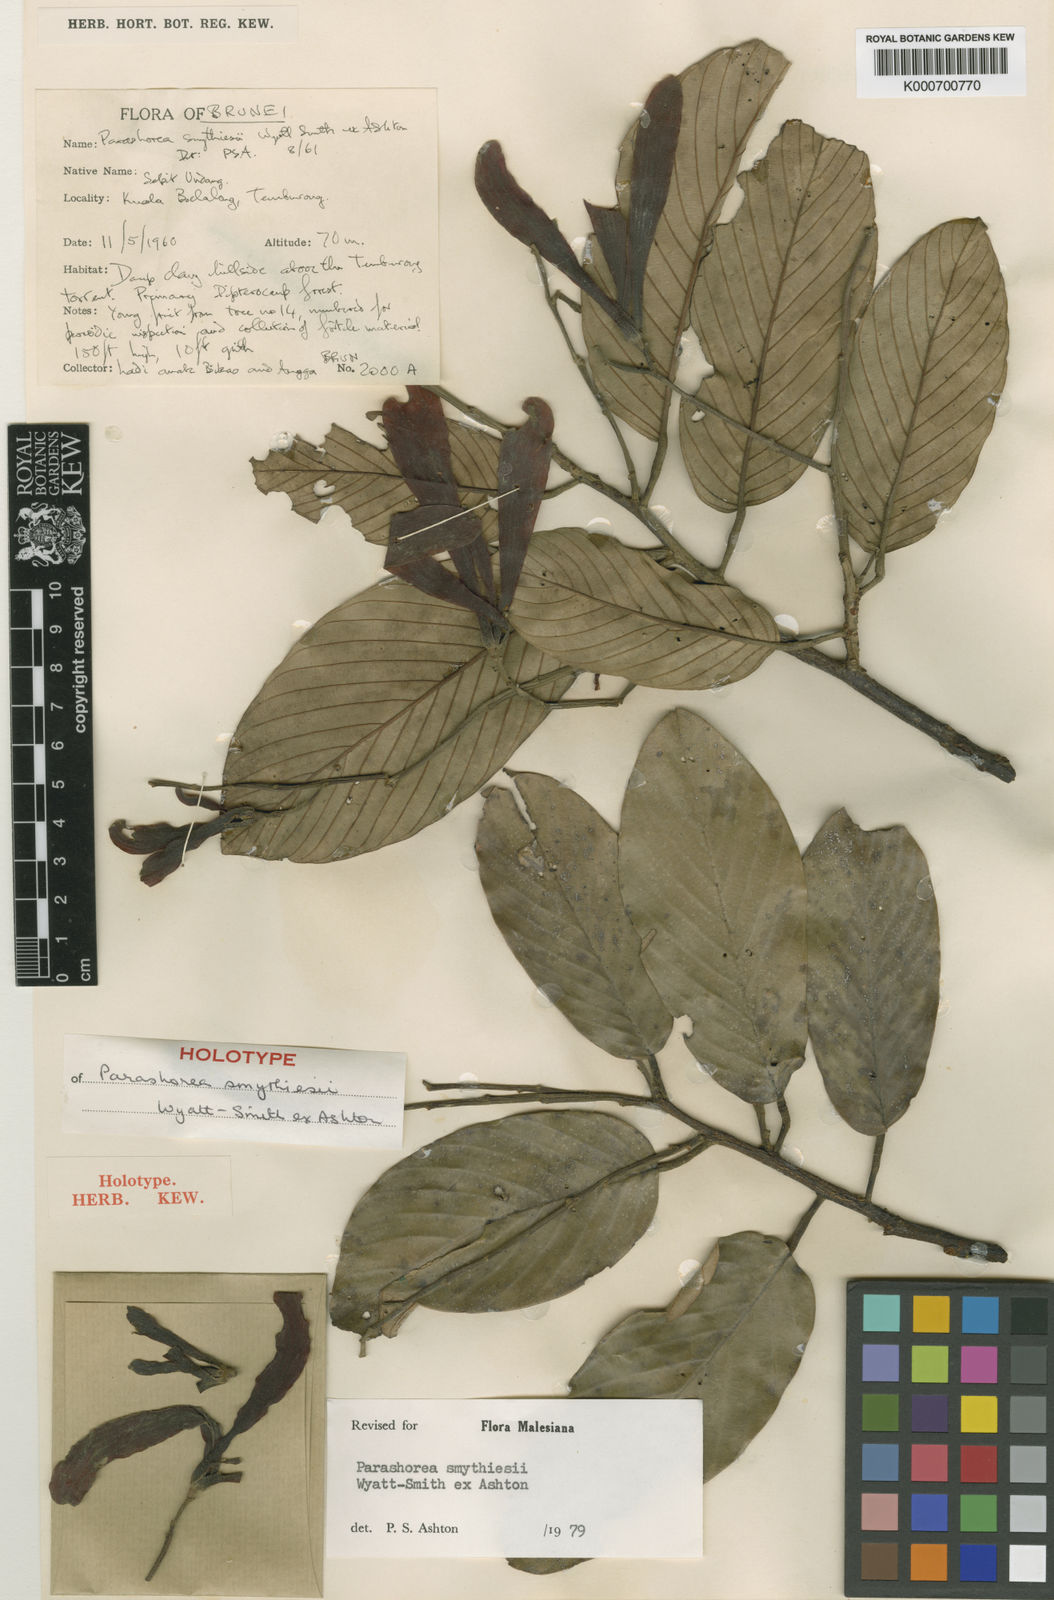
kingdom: Plantae
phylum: Tracheophyta
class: Magnoliopsida
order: Malvales
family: Dipterocarpaceae
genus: Parashorea
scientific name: Parashorea smythiesii
